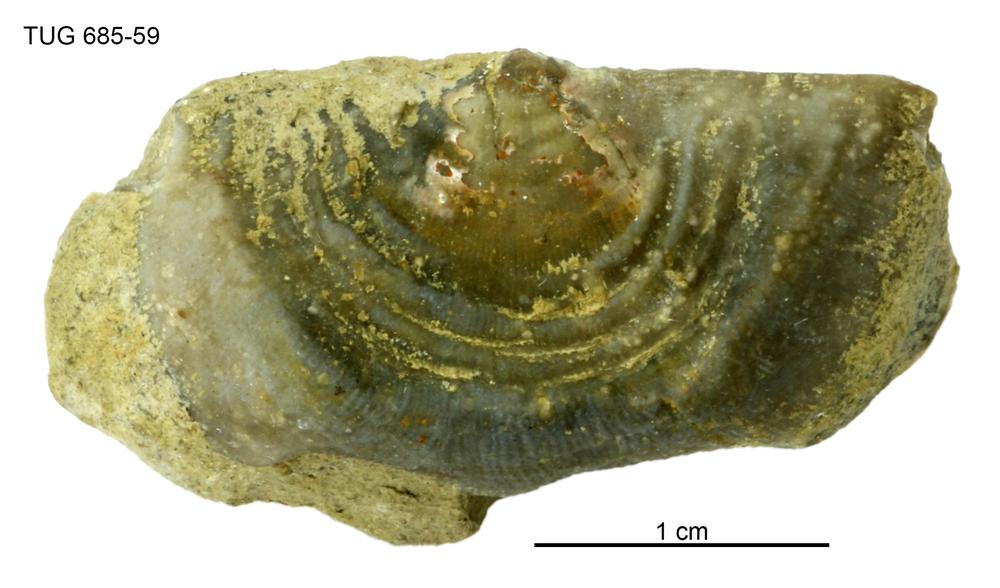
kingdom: Animalia
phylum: Brachiopoda
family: Strophomenidae
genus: Leptaena
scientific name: Leptaena Similoleptaena paucirugata
